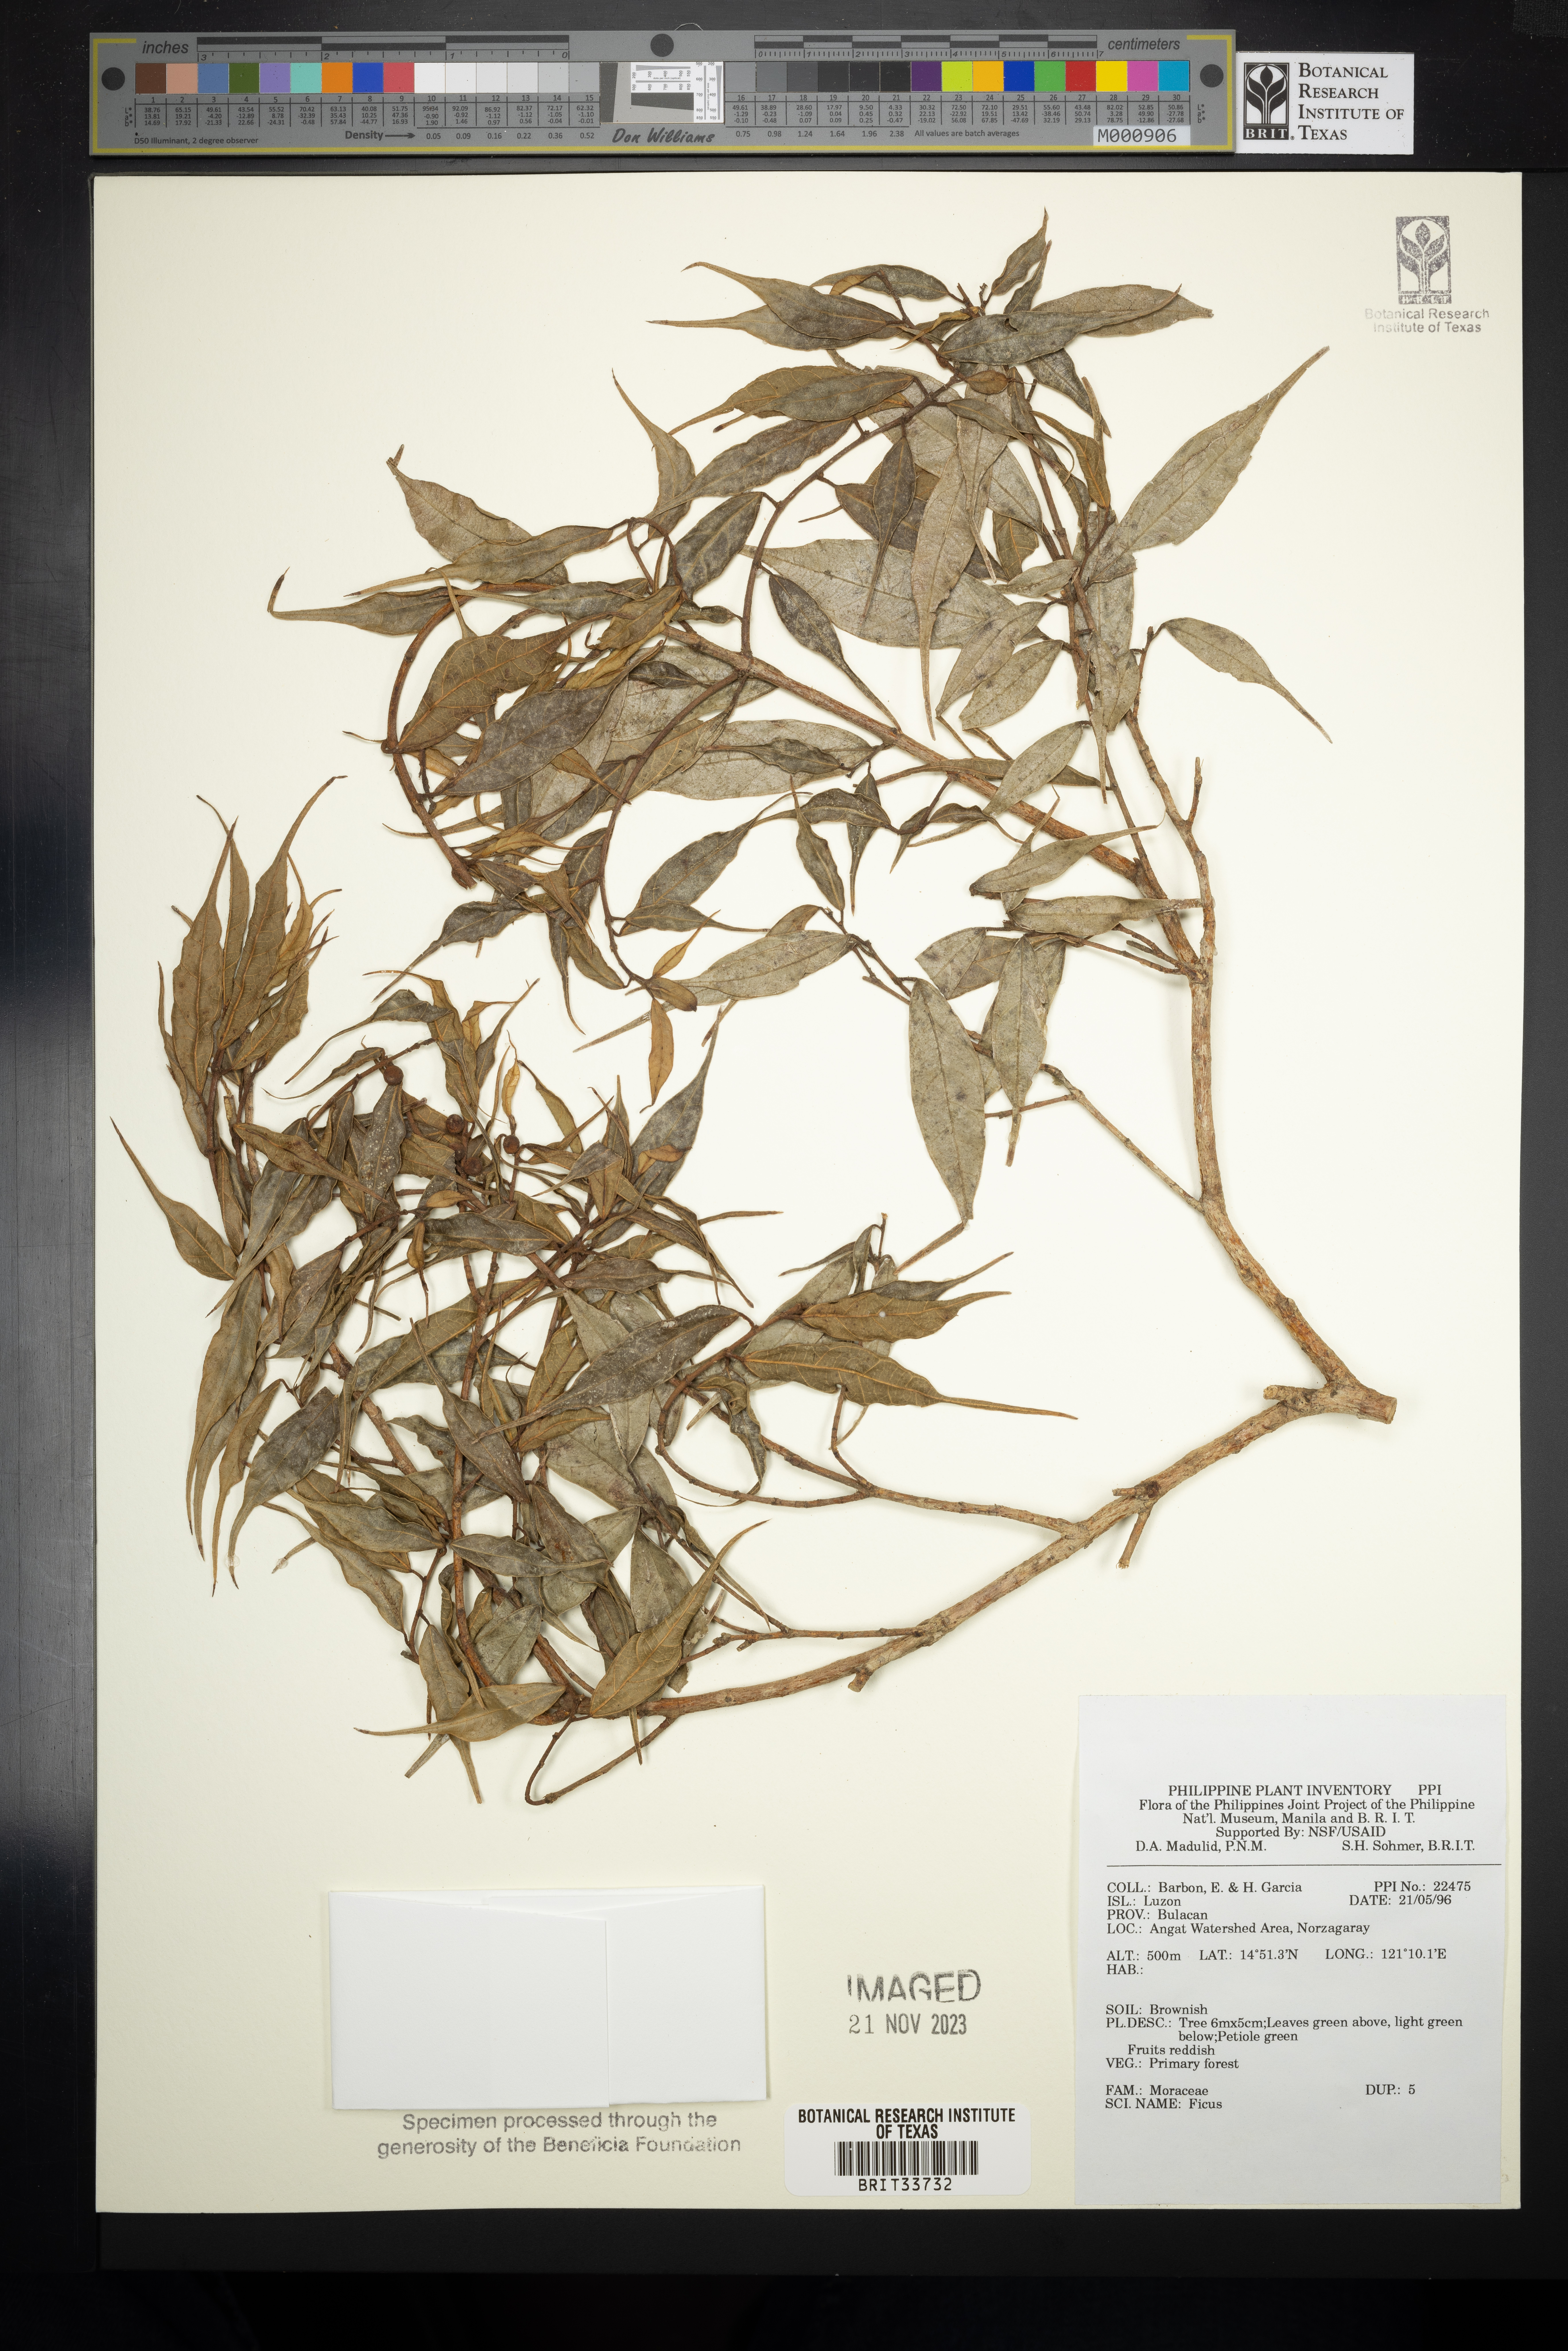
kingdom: Plantae
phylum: Tracheophyta
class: Magnoliopsida
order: Rosales
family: Moraceae
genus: Ficus
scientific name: Ficus
